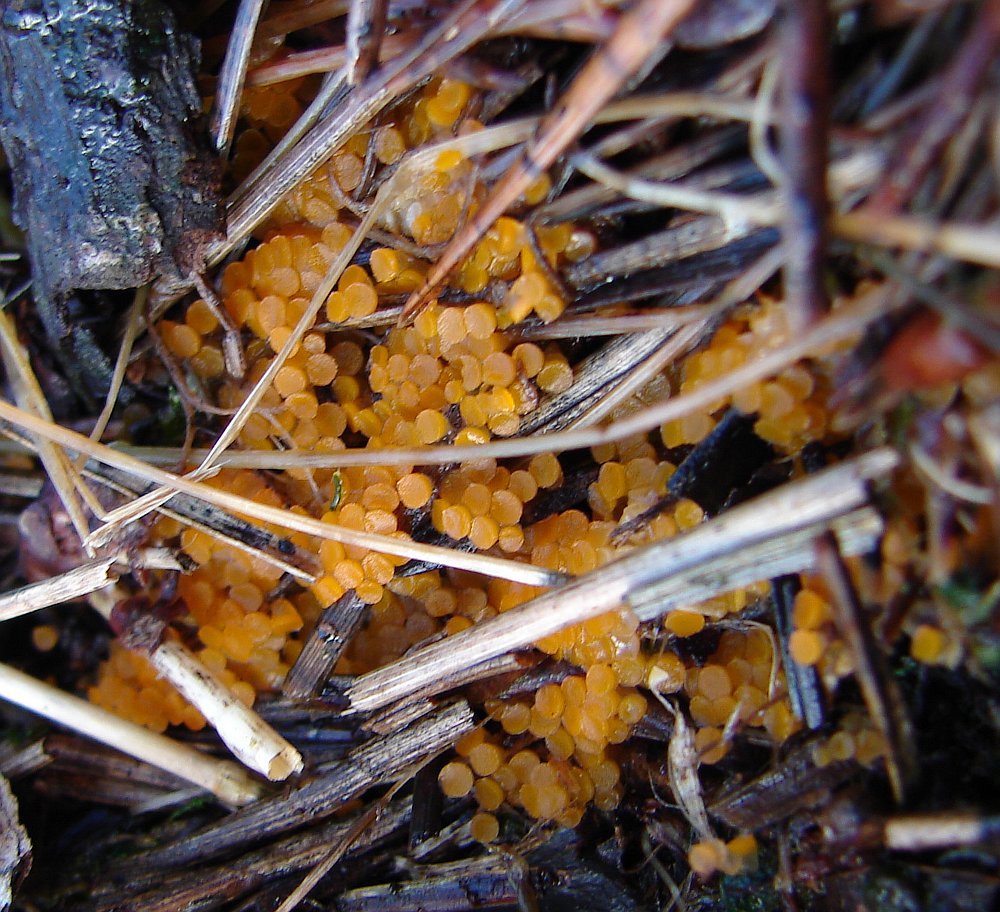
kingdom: Fungi
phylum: Ascomycota
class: Pezizomycetes
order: Pezizales
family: Pyronemataceae
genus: Byssonectria
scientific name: Byssonectria terrestris
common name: hjortebæger
